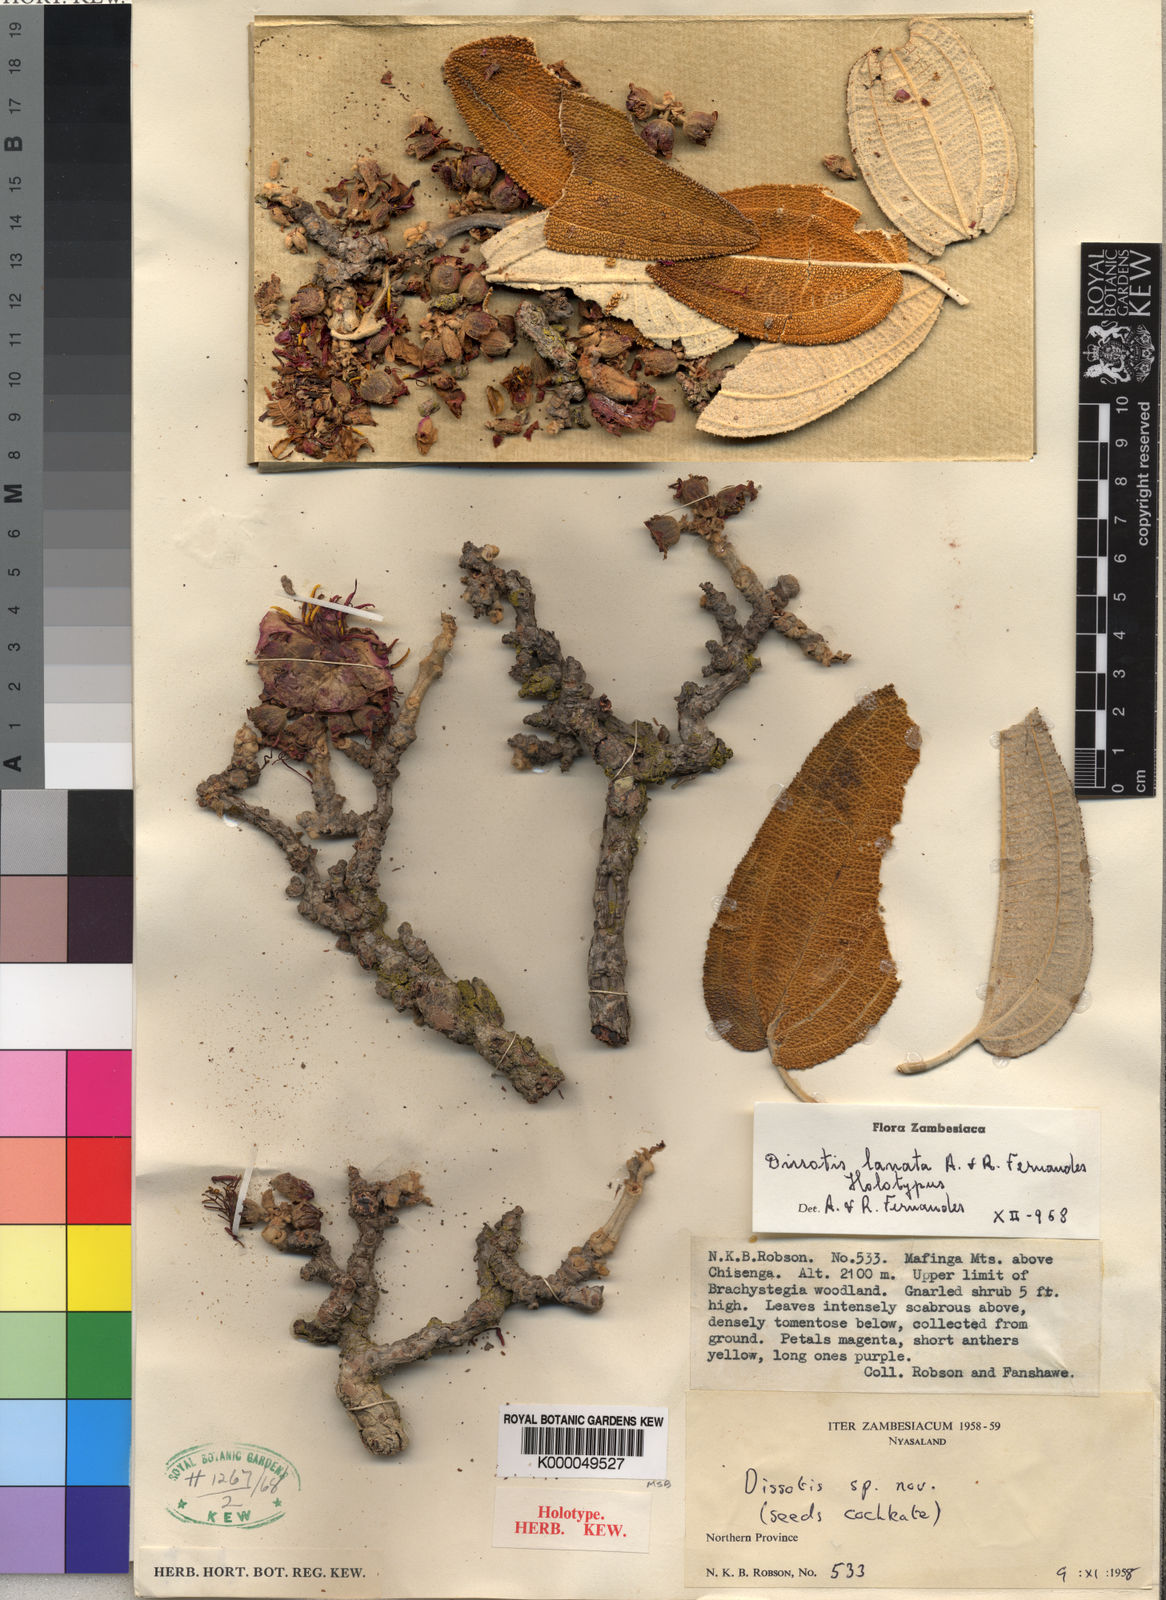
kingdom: Plantae
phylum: Tracheophyta
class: Magnoliopsida
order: Myrtales
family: Melastomataceae
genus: Dissotidendron
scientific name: Dissotidendron lanatum
